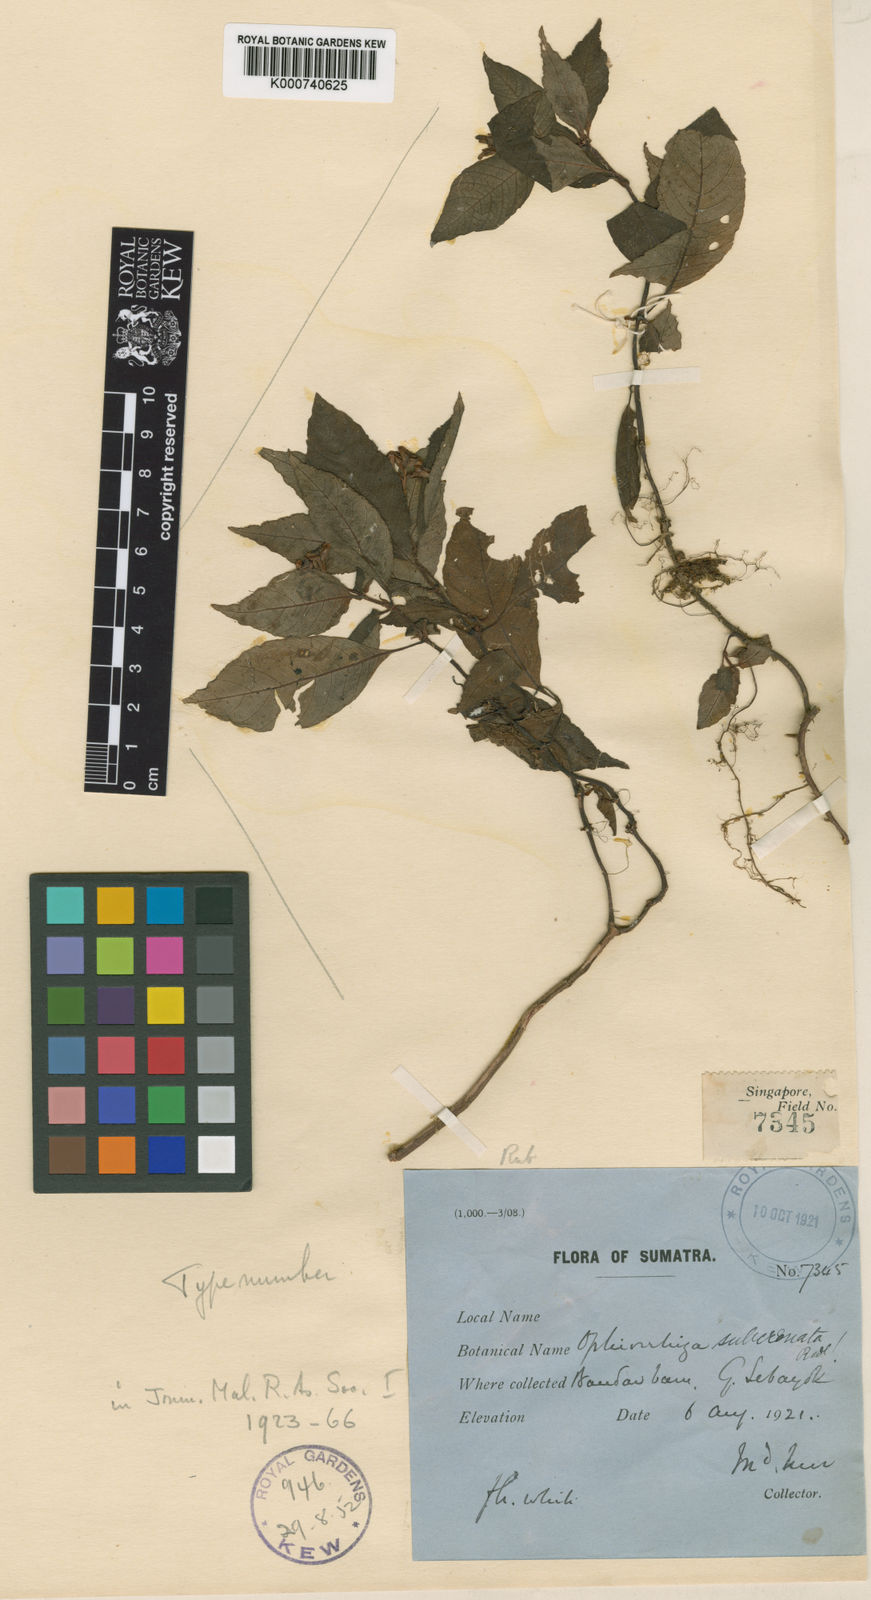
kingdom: Plantae
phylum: Tracheophyta
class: Magnoliopsida
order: Gentianales
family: Rubiaceae
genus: Ophiorrhiza
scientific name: Ophiorrhiza subcrenata
